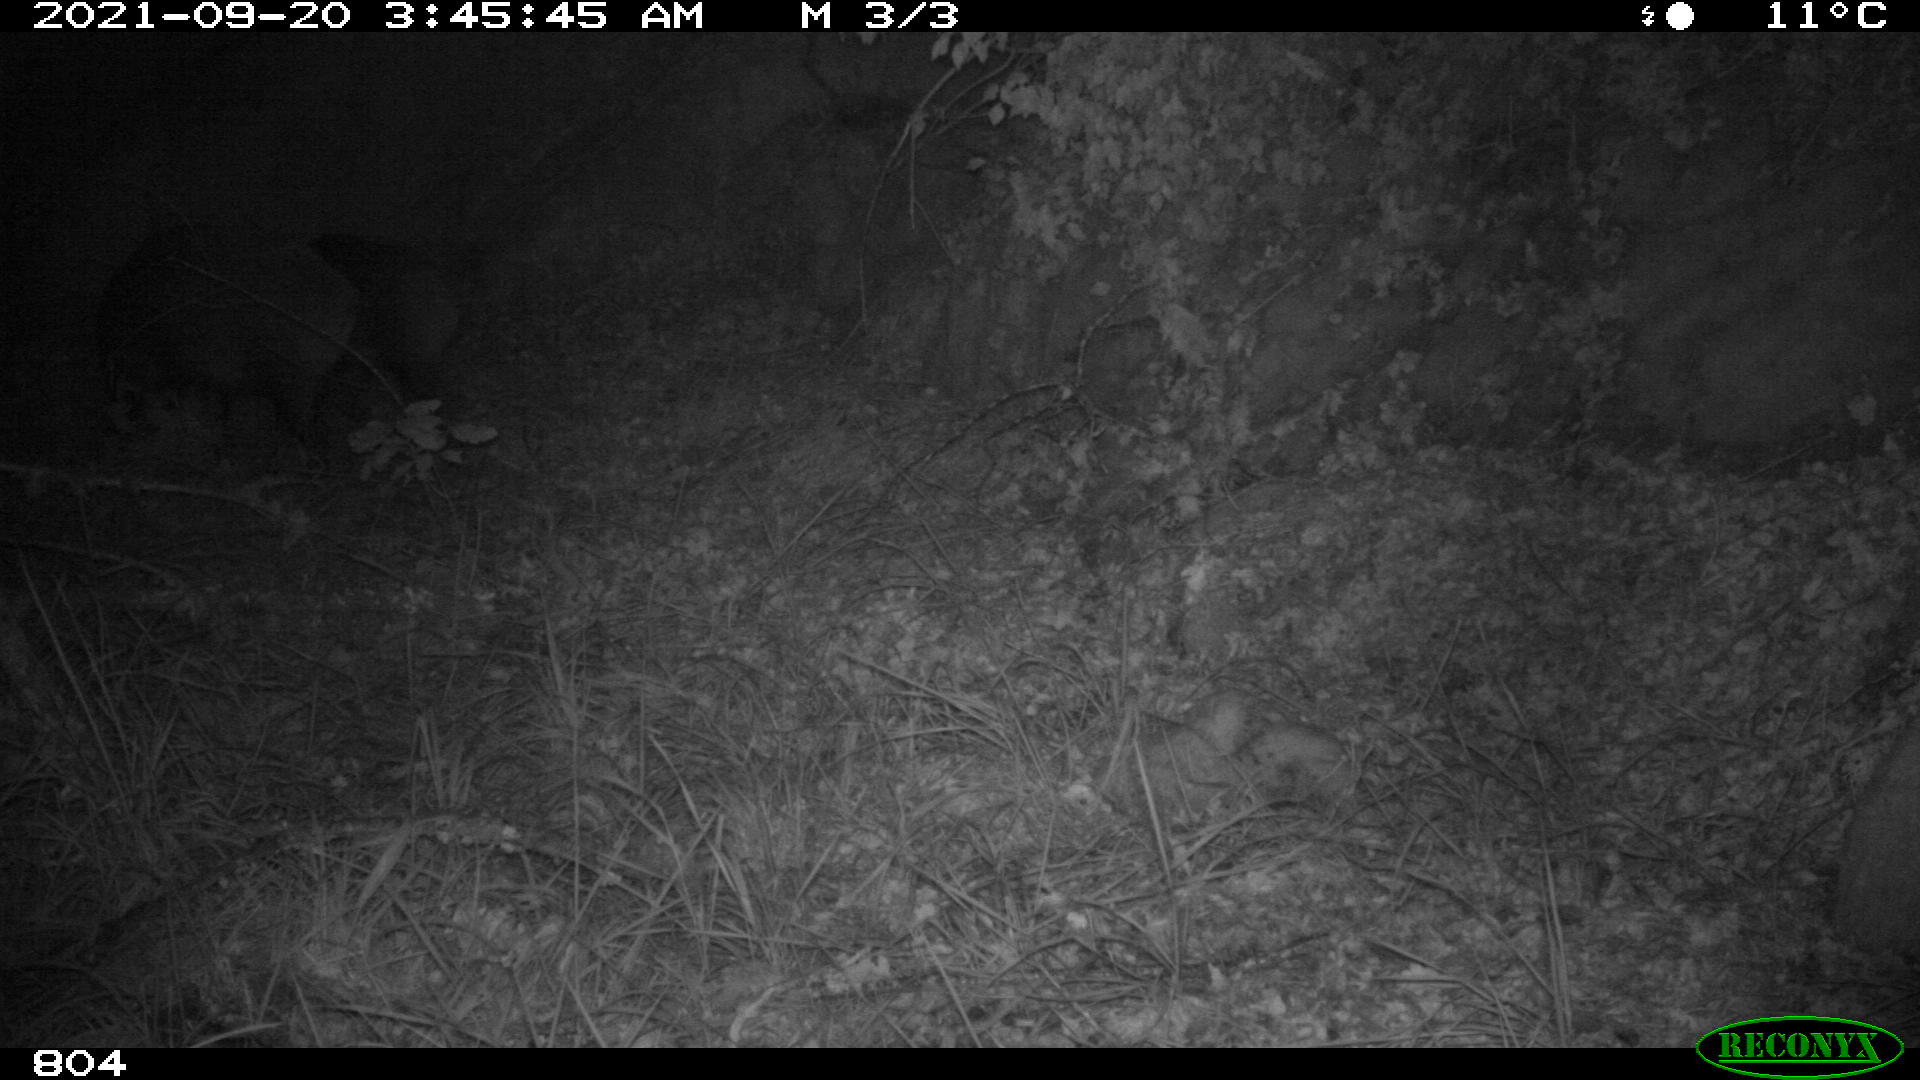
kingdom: Animalia
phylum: Chordata
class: Mammalia
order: Artiodactyla
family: Suidae
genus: Sus
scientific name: Sus scrofa
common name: Wild boar
